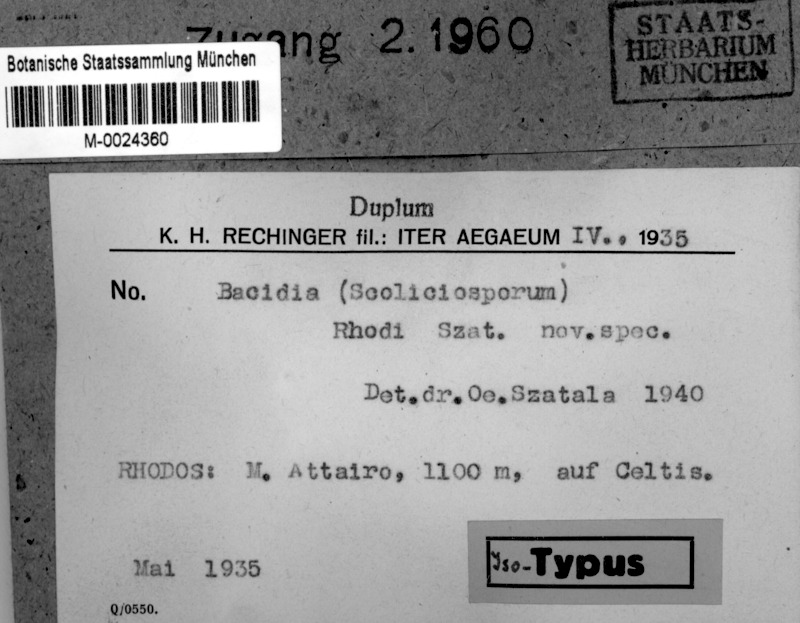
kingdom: Fungi
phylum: Ascomycota
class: Lecanoromycetes
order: Lecanorales
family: Ramalinaceae
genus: Bacidia
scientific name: Bacidia
